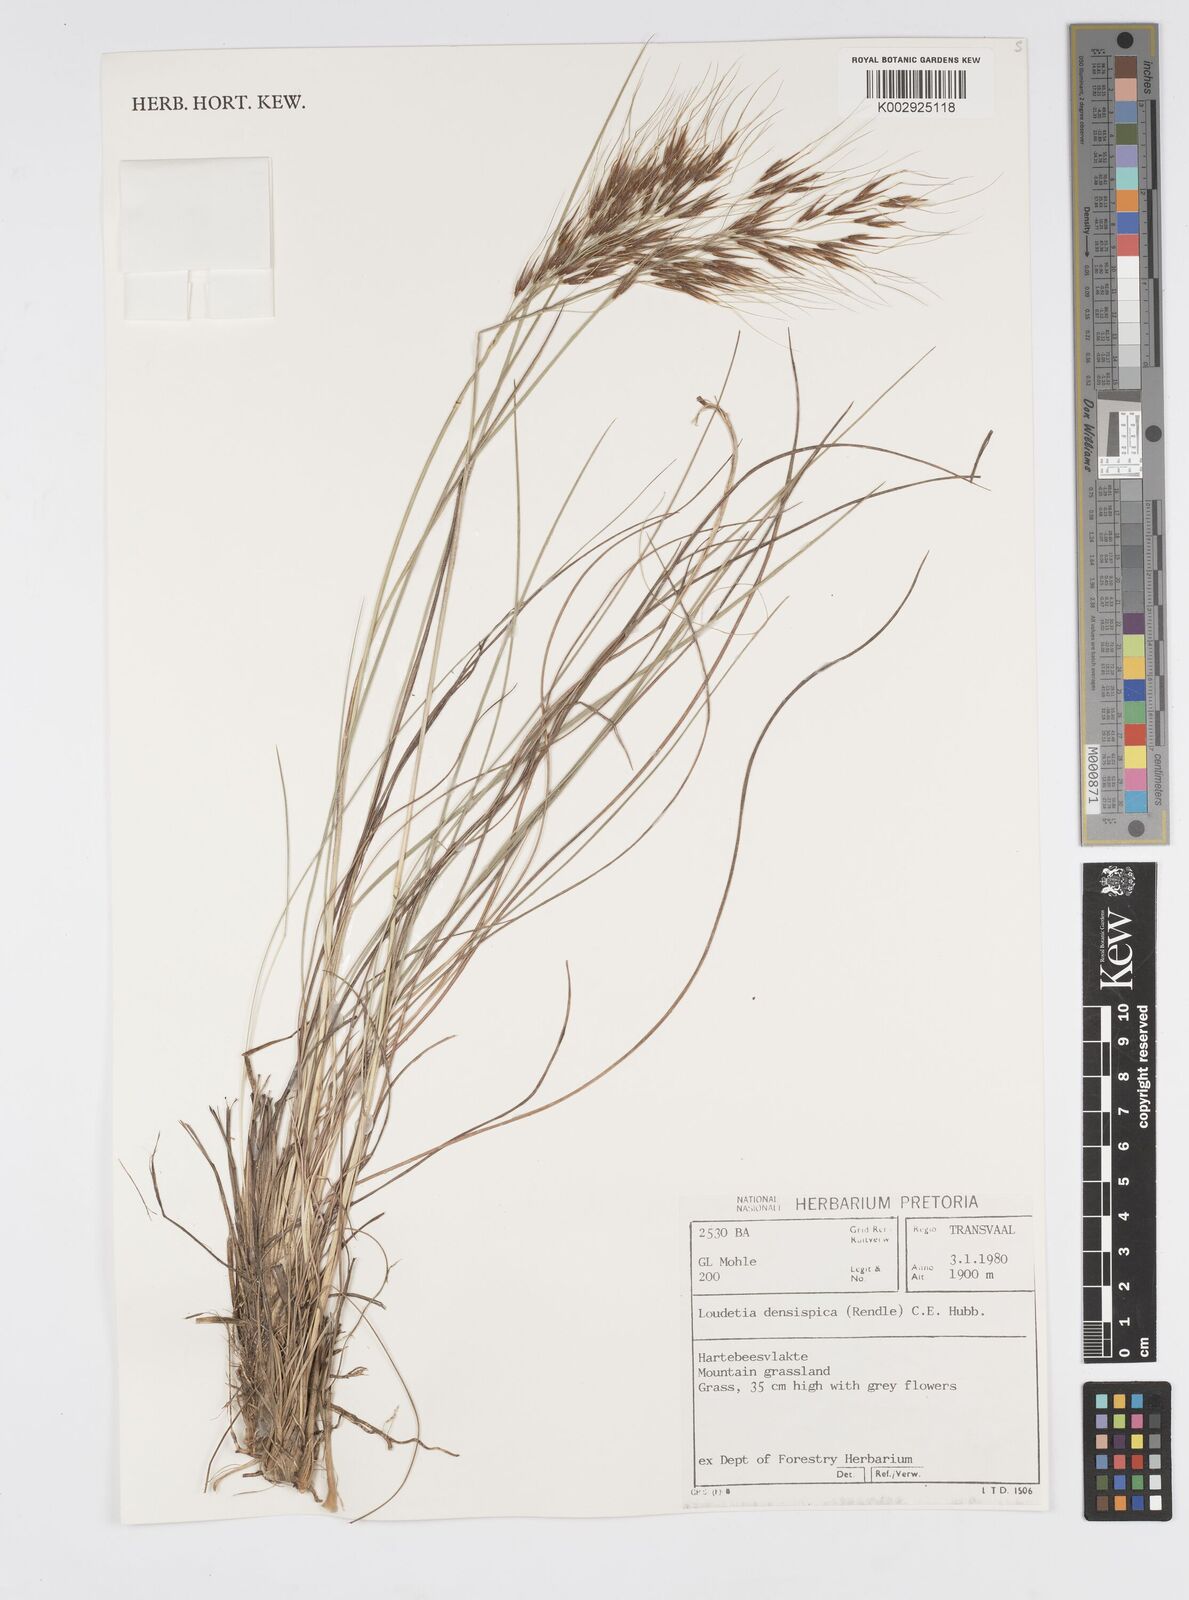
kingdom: Plantae
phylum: Tracheophyta
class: Liliopsida
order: Poales
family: Poaceae
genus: Loudetia
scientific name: Loudetia
